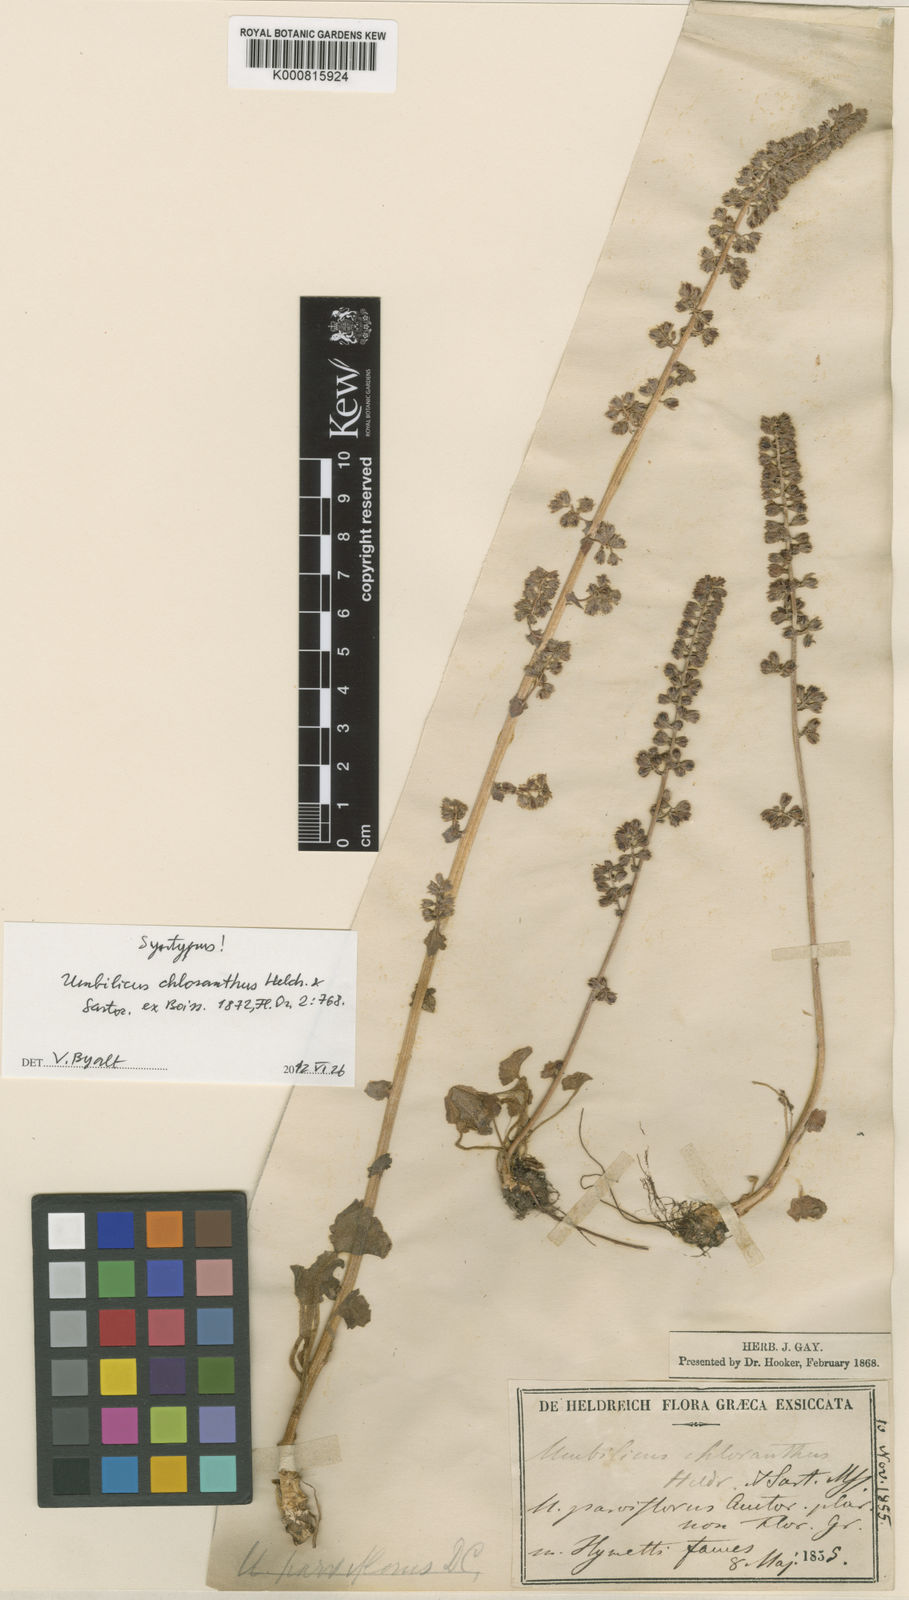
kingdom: Plantae
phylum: Tracheophyta
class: Magnoliopsida
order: Saxifragales
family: Crassulaceae
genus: Umbilicus
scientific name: Umbilicus chloranthus
